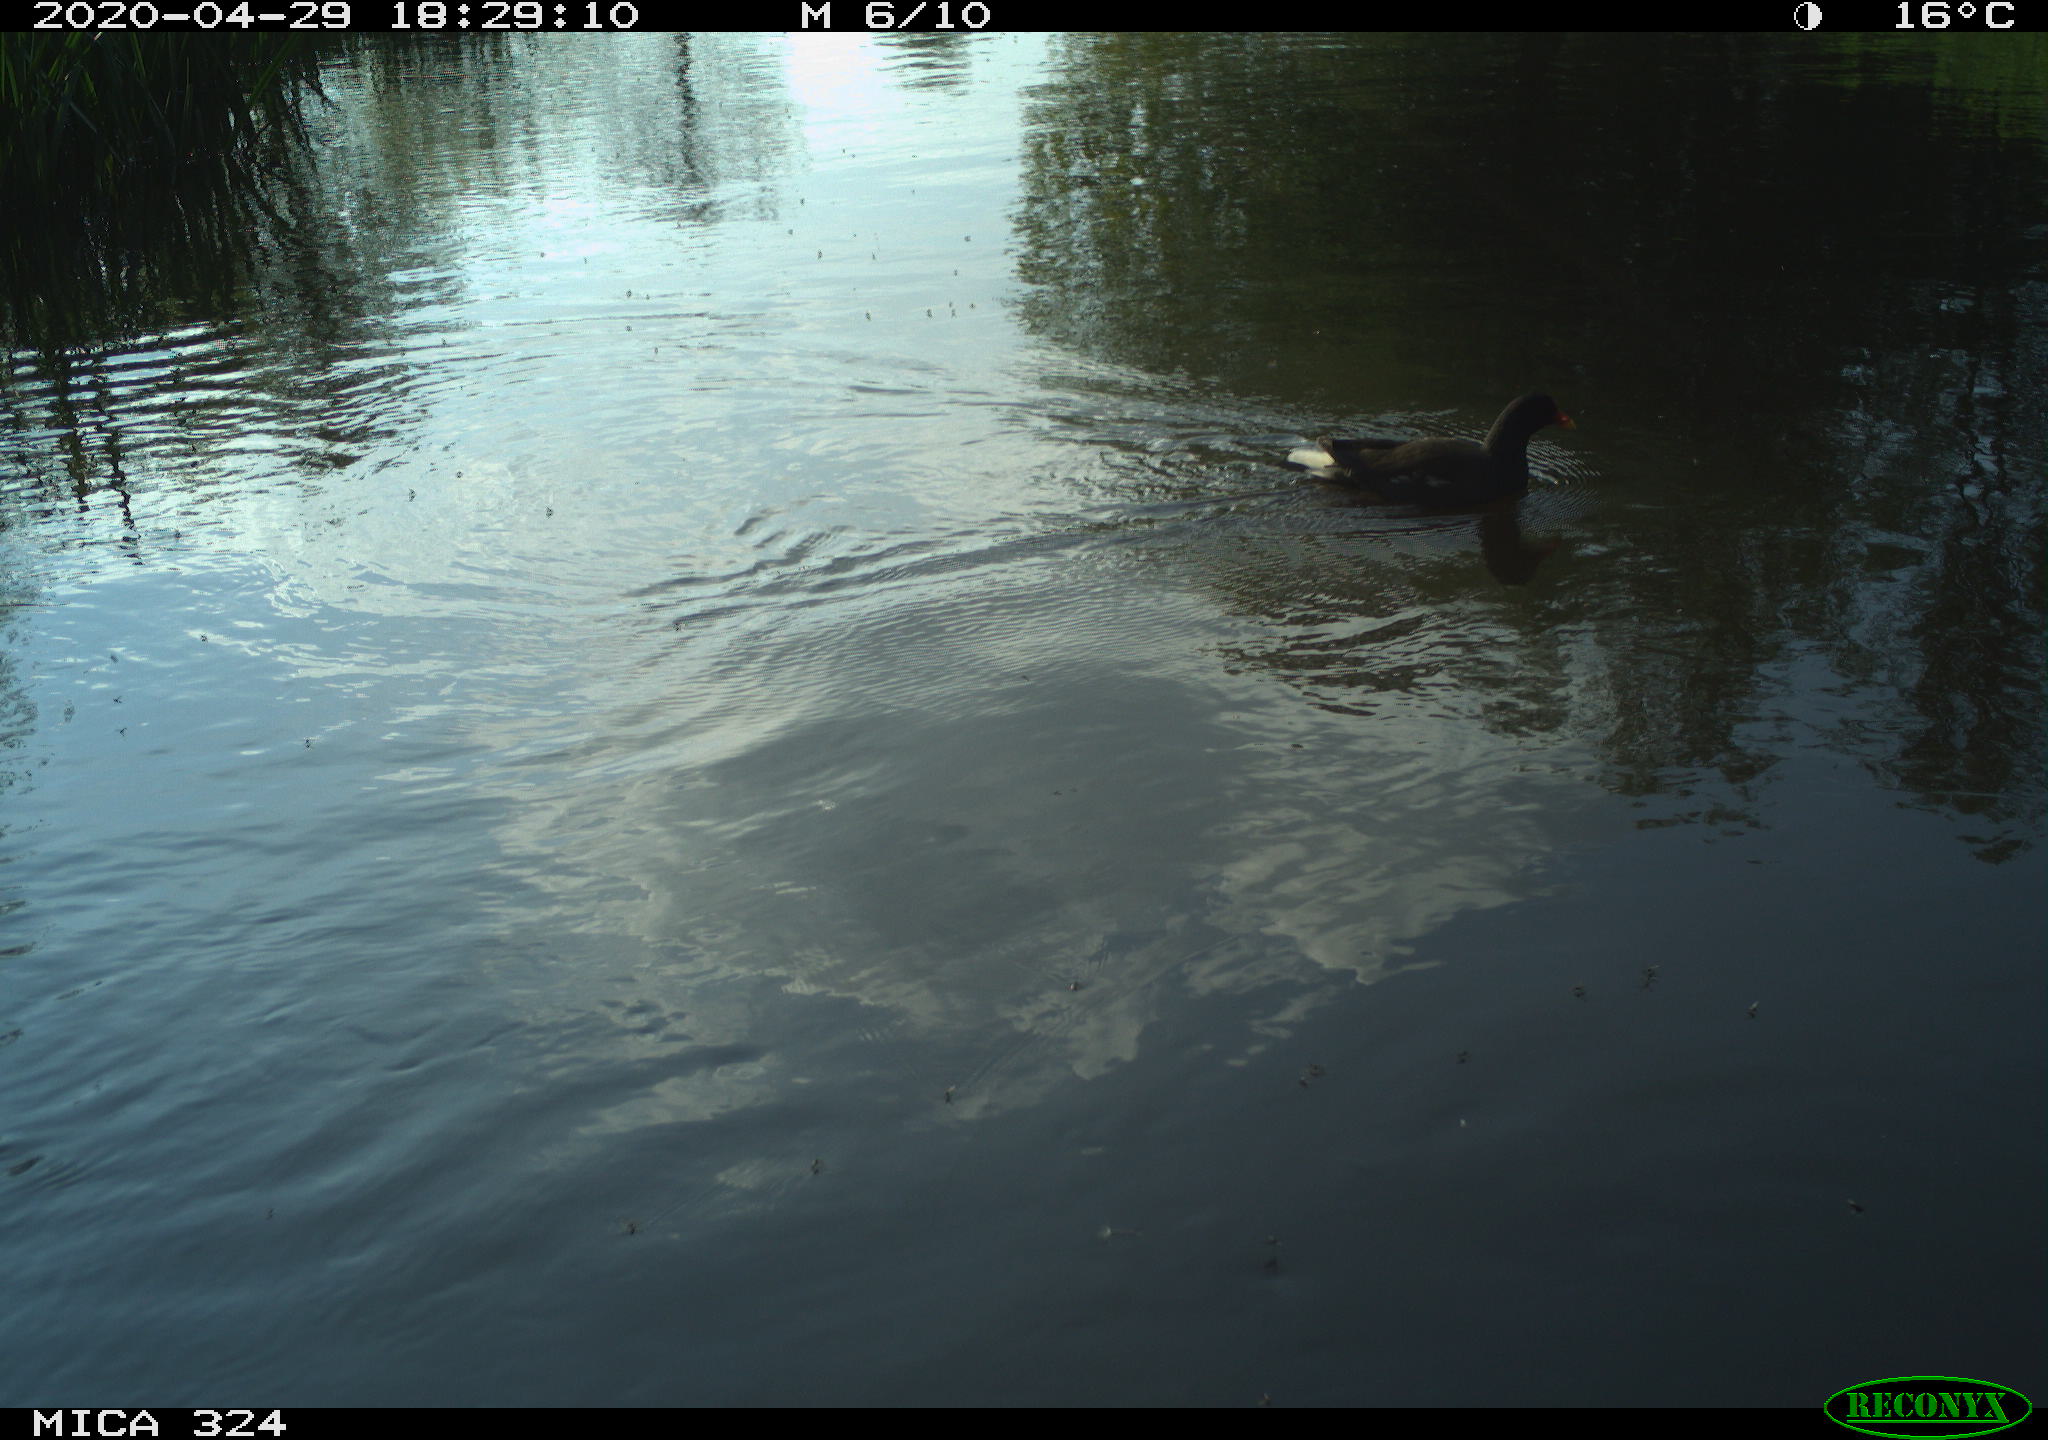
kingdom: Animalia
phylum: Chordata
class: Aves
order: Gruiformes
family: Rallidae
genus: Gallinula
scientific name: Gallinula chloropus
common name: Common moorhen
